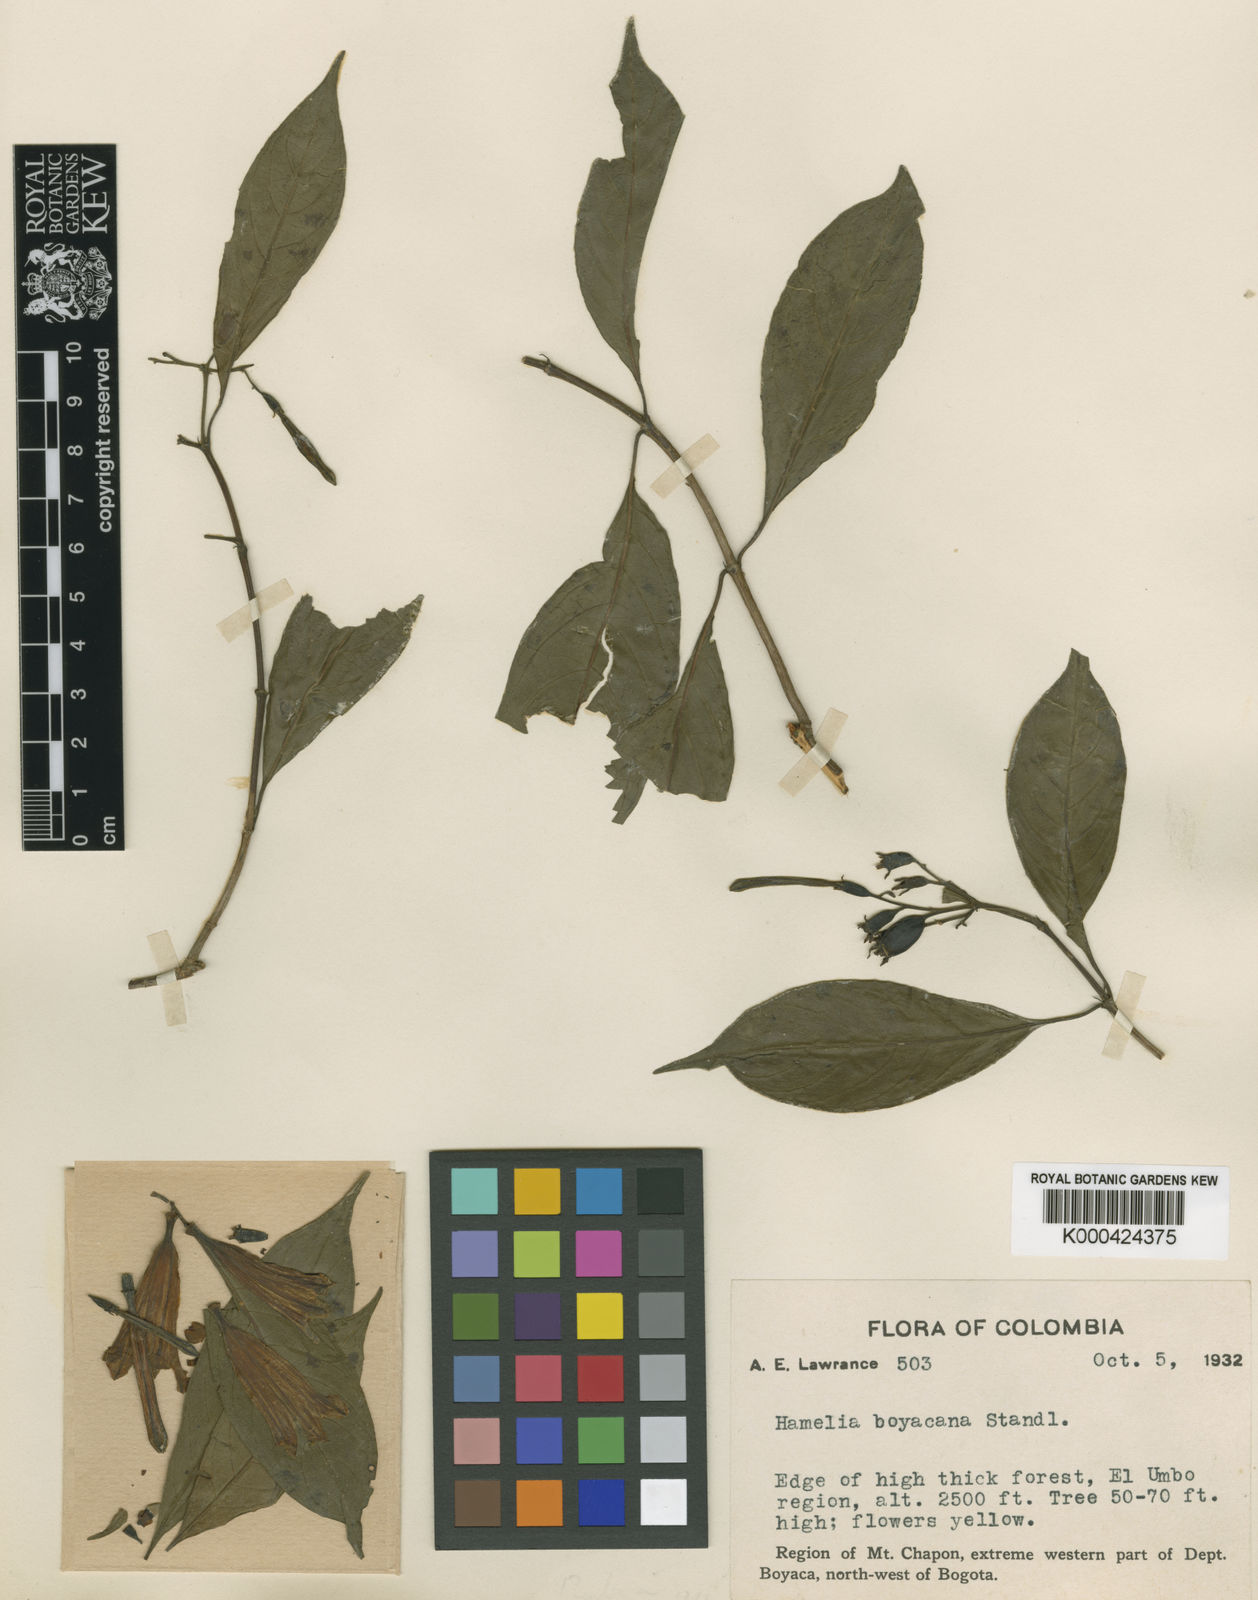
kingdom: Plantae
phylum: Tracheophyta
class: Magnoliopsida
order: Gentianales
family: Rubiaceae
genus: Hamelia
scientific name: Hamelia calycosa
